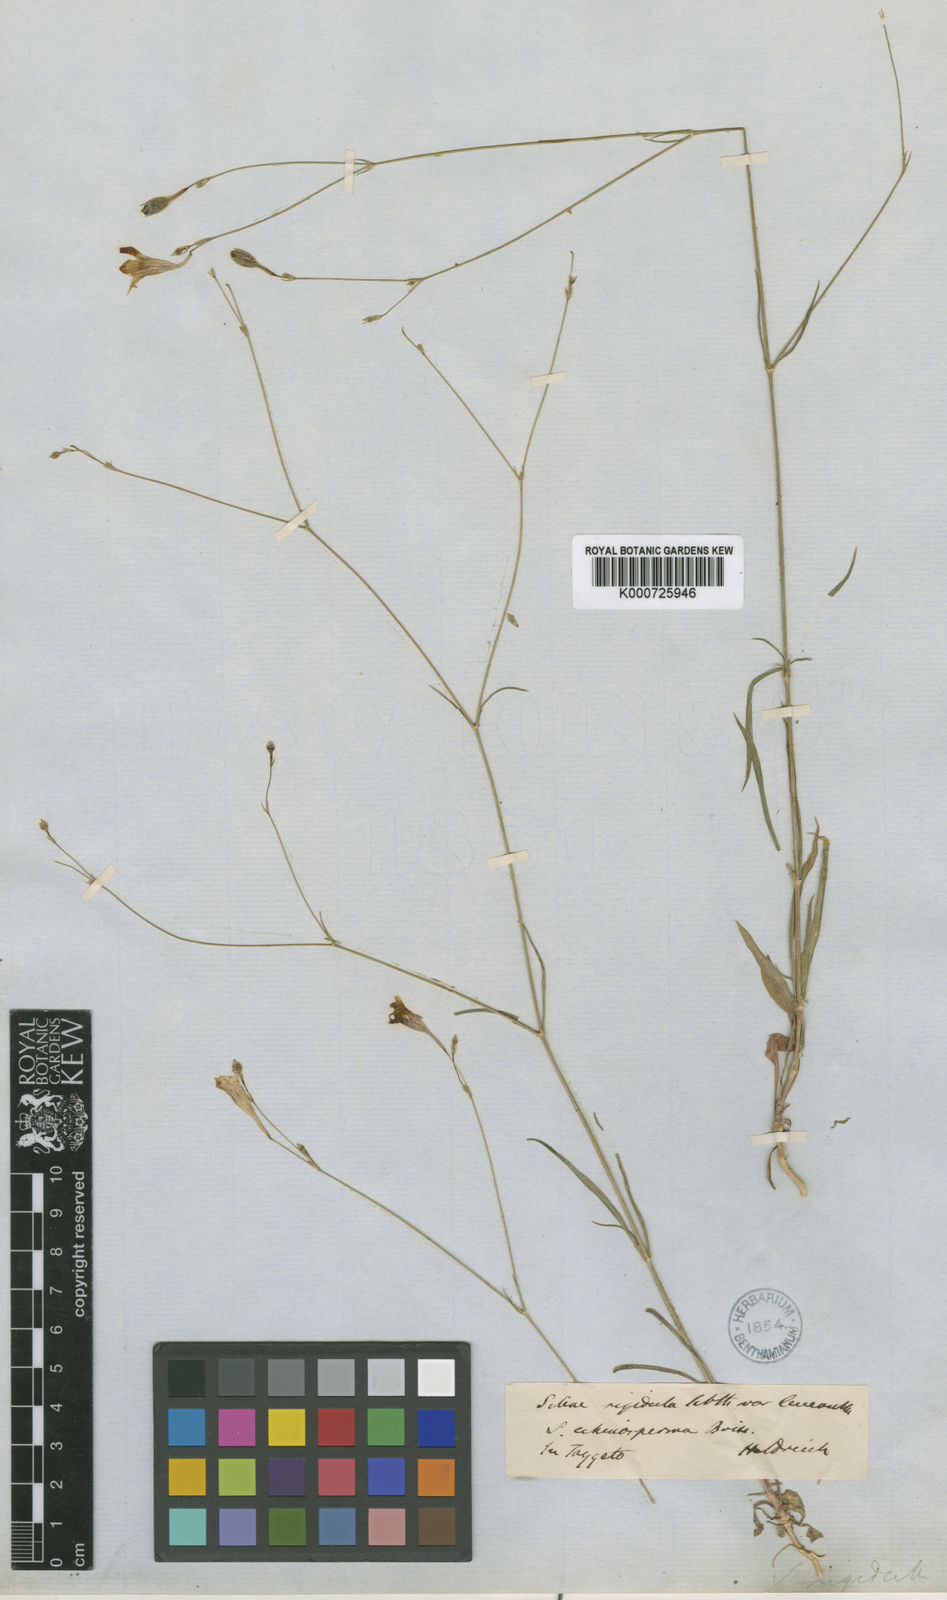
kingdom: Plantae
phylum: Tracheophyta
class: Magnoliopsida
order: Caryophyllales
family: Caryophyllaceae
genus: Silene
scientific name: Silene echinosperma
